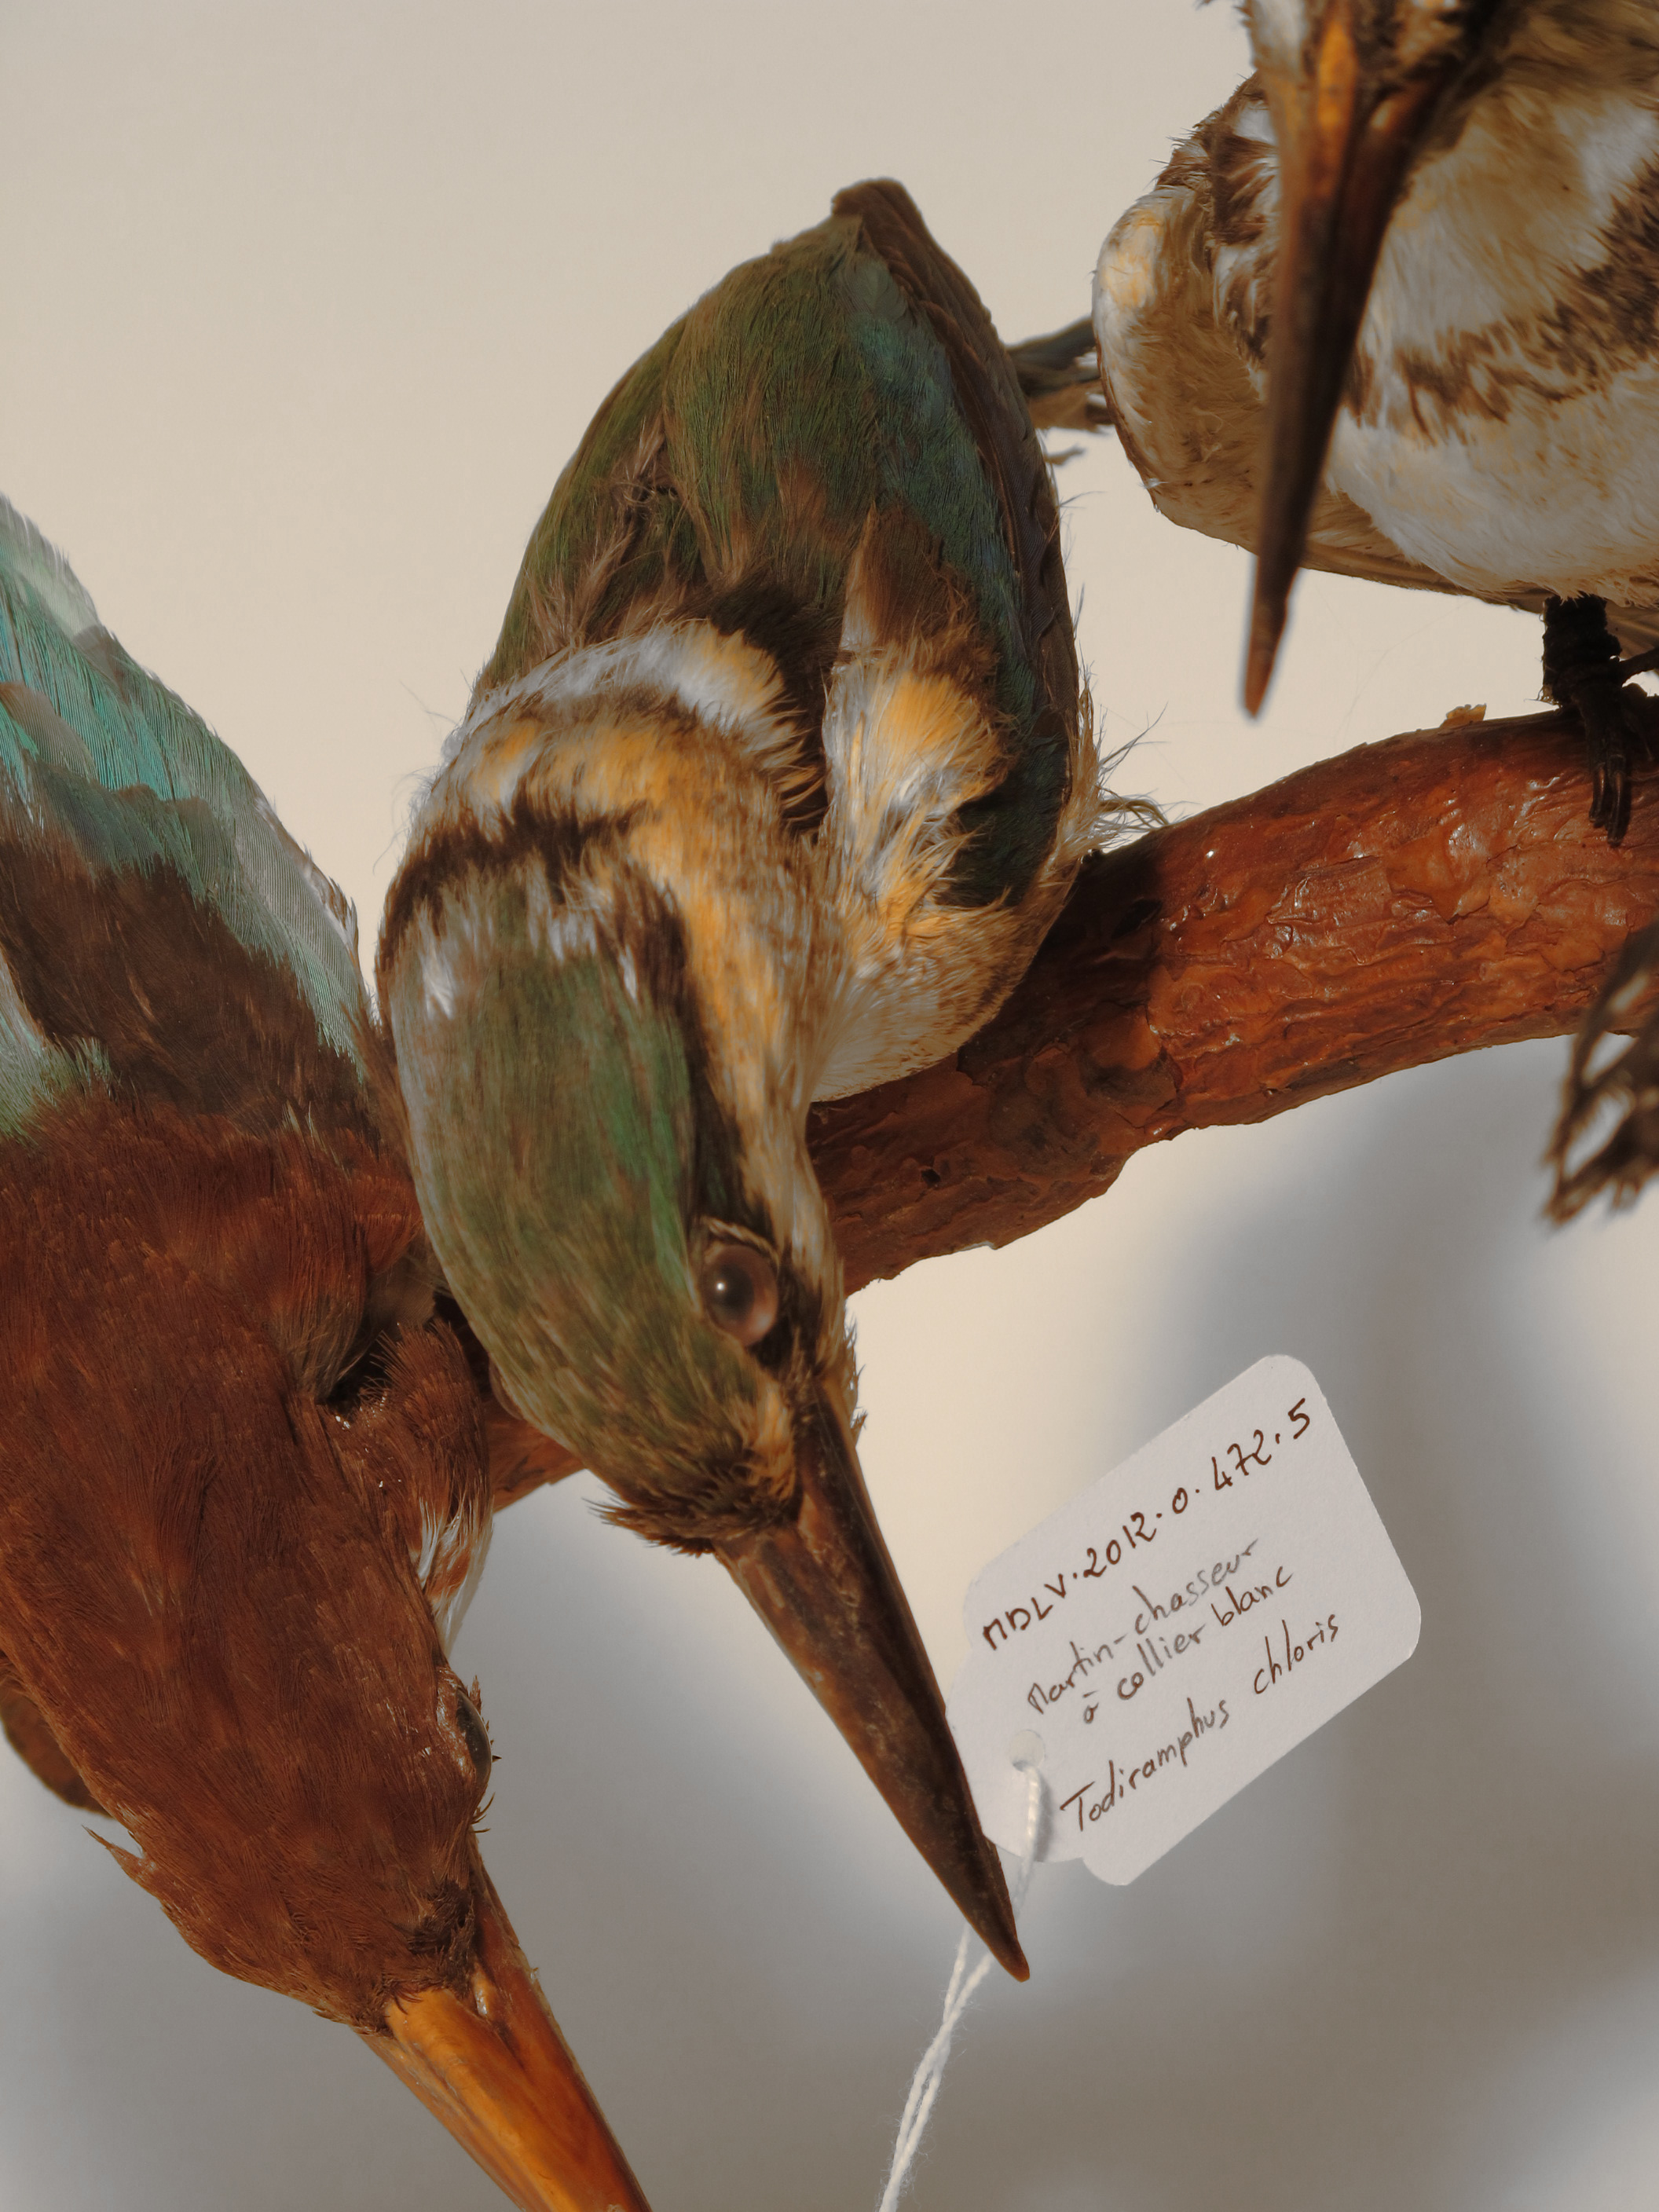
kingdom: Animalia
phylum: Chordata
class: Aves
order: Coraciiformes
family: Alcedinidae
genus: Todiramphus
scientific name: Todiramphus chloris
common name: Collared Kingfisher
